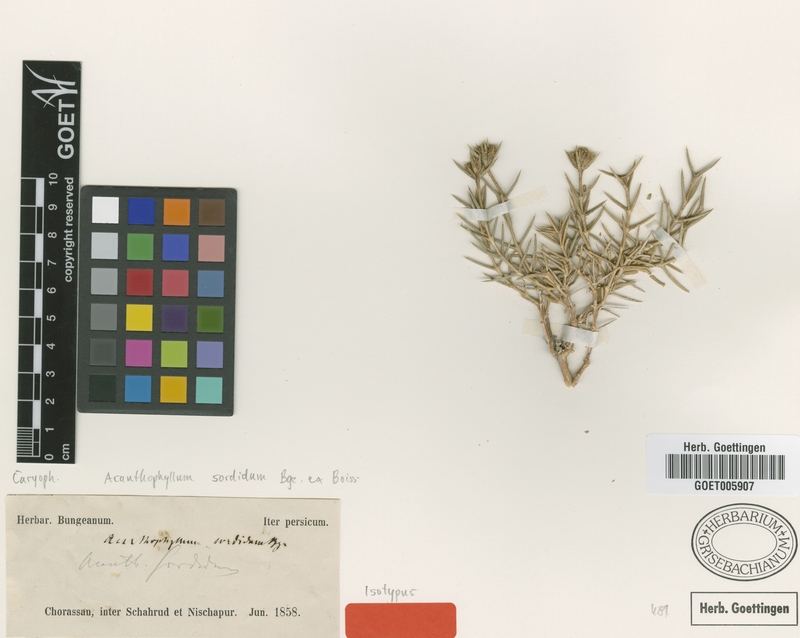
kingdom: Plantae
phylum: Tracheophyta
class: Magnoliopsida
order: Caryophyllales
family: Caryophyllaceae
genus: Acanthophyllum
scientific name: Acanthophyllum sordidum
